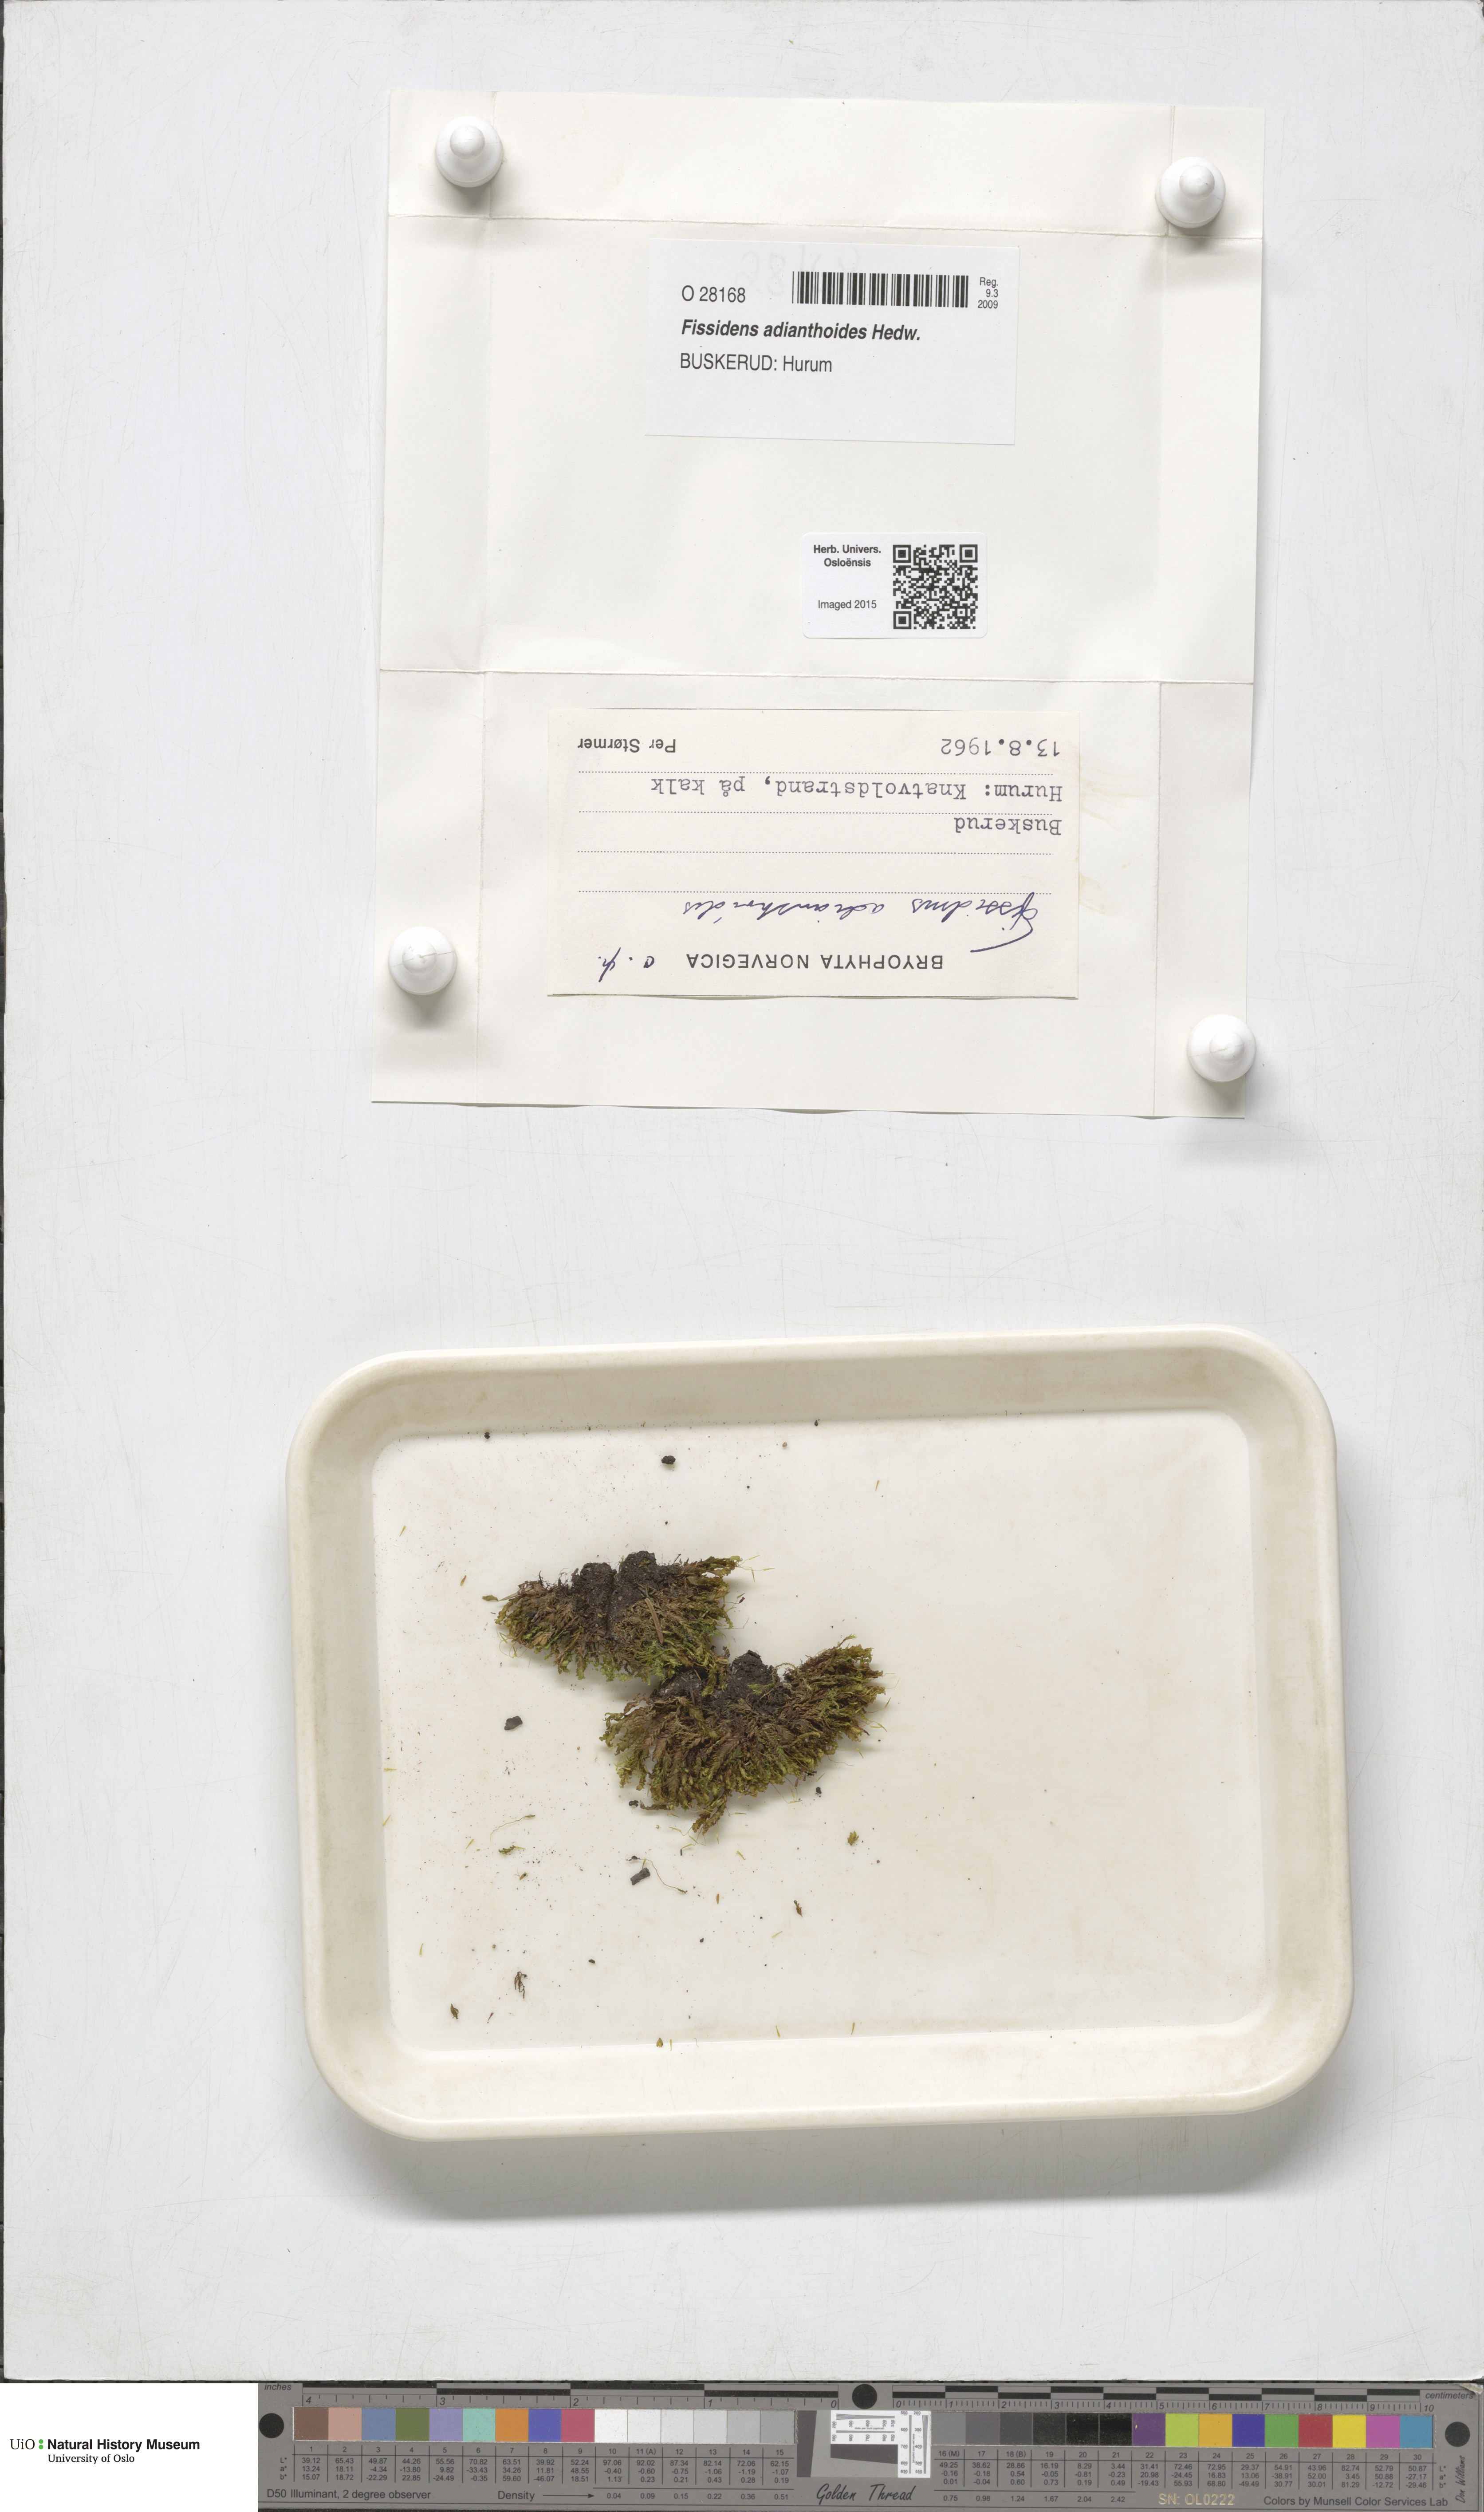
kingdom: Plantae
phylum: Bryophyta
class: Bryopsida
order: Dicranales
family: Fissidentaceae
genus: Fissidens
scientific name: Fissidens adianthoides
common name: Maidenhair pocket moss
